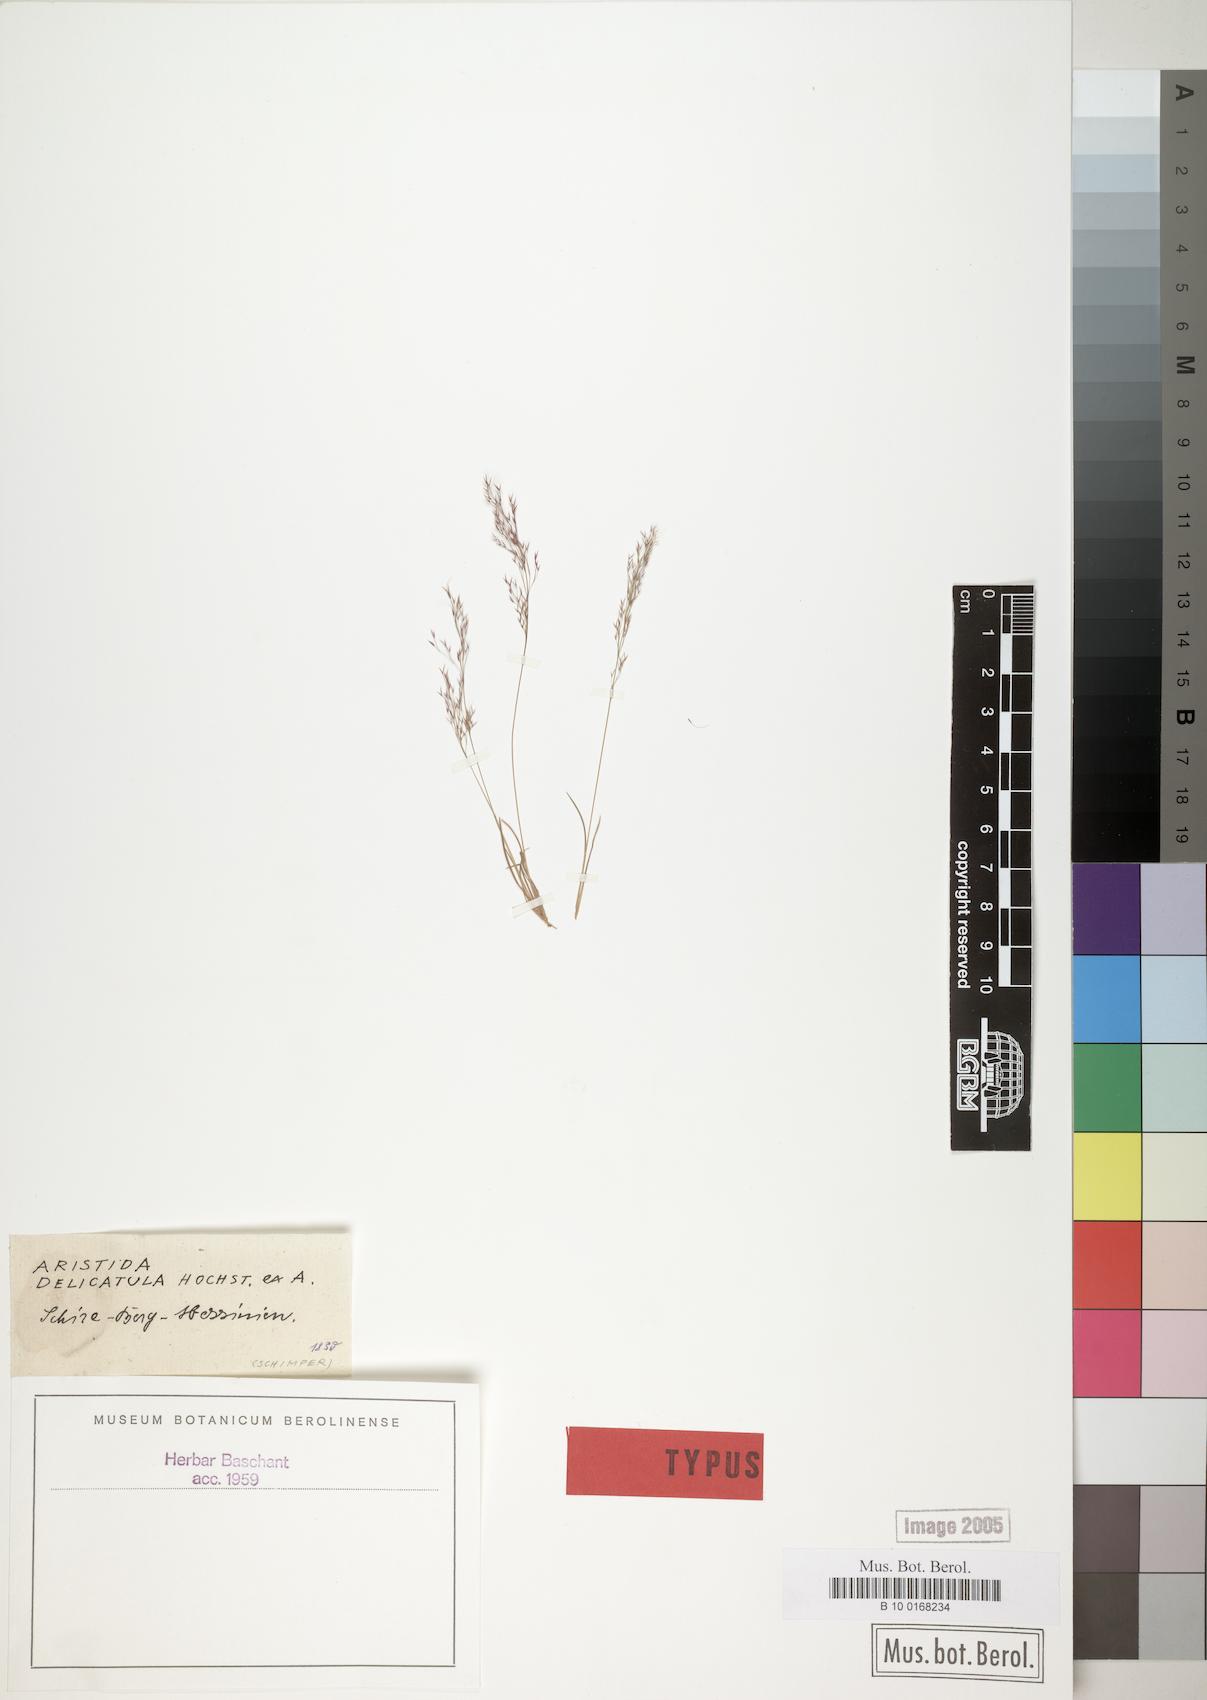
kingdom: Plantae
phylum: Tracheophyta
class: Liliopsida
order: Poales
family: Poaceae
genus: Aristida
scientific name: Aristida cumingiana
